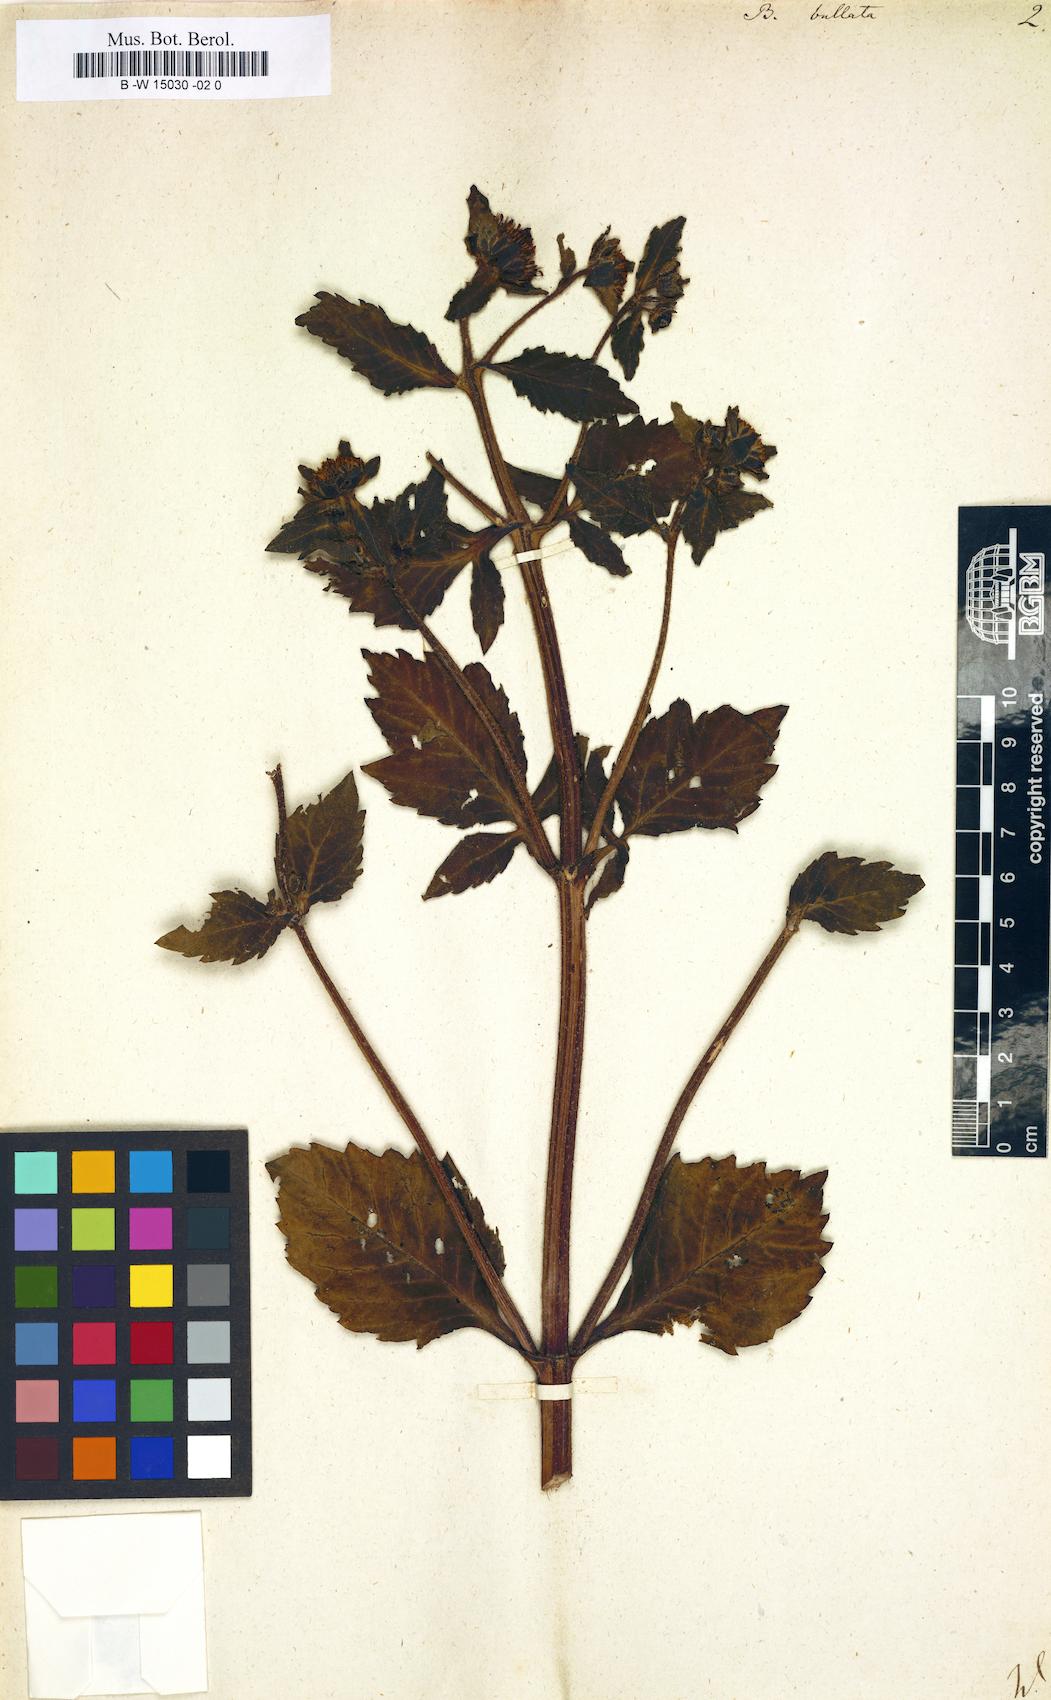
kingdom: Plantae
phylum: Tracheophyta
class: Magnoliopsida
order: Asterales
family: Asteraceae
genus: Bidens
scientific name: Bidens tripartita
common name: Trifid bur-marigold
